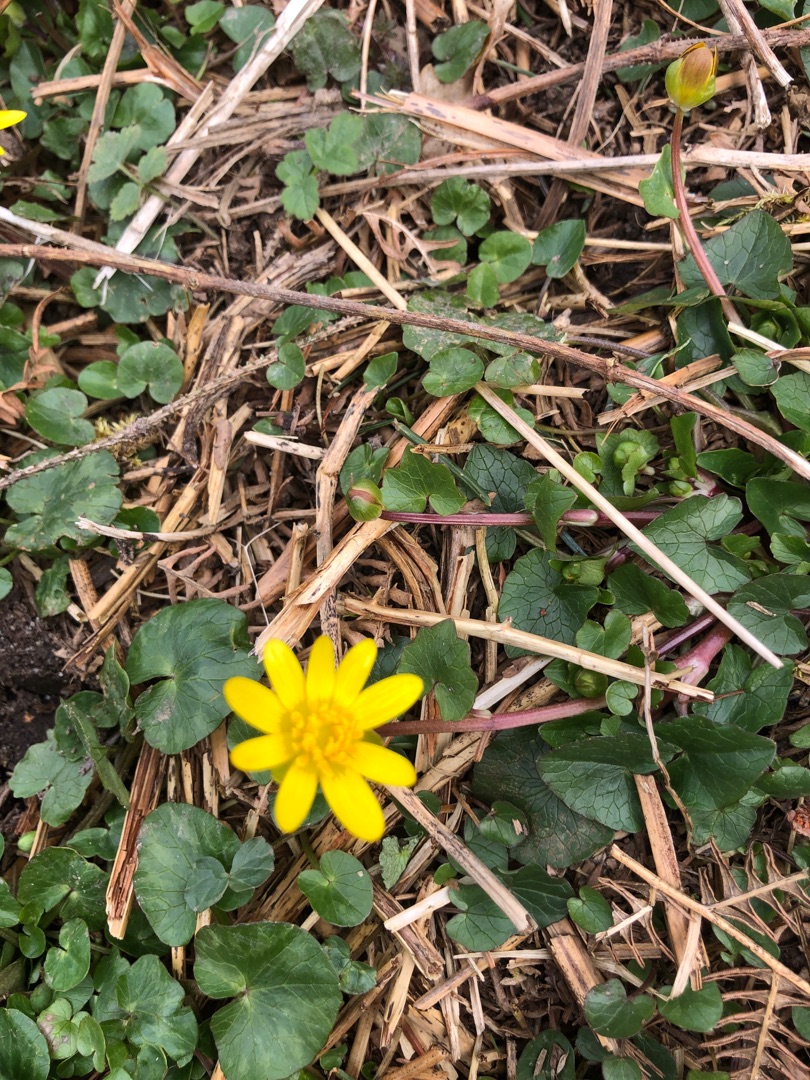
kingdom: Plantae
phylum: Tracheophyta
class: Magnoliopsida
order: Ranunculales
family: Ranunculaceae
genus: Ficaria
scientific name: Ficaria verna
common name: Vorterod
